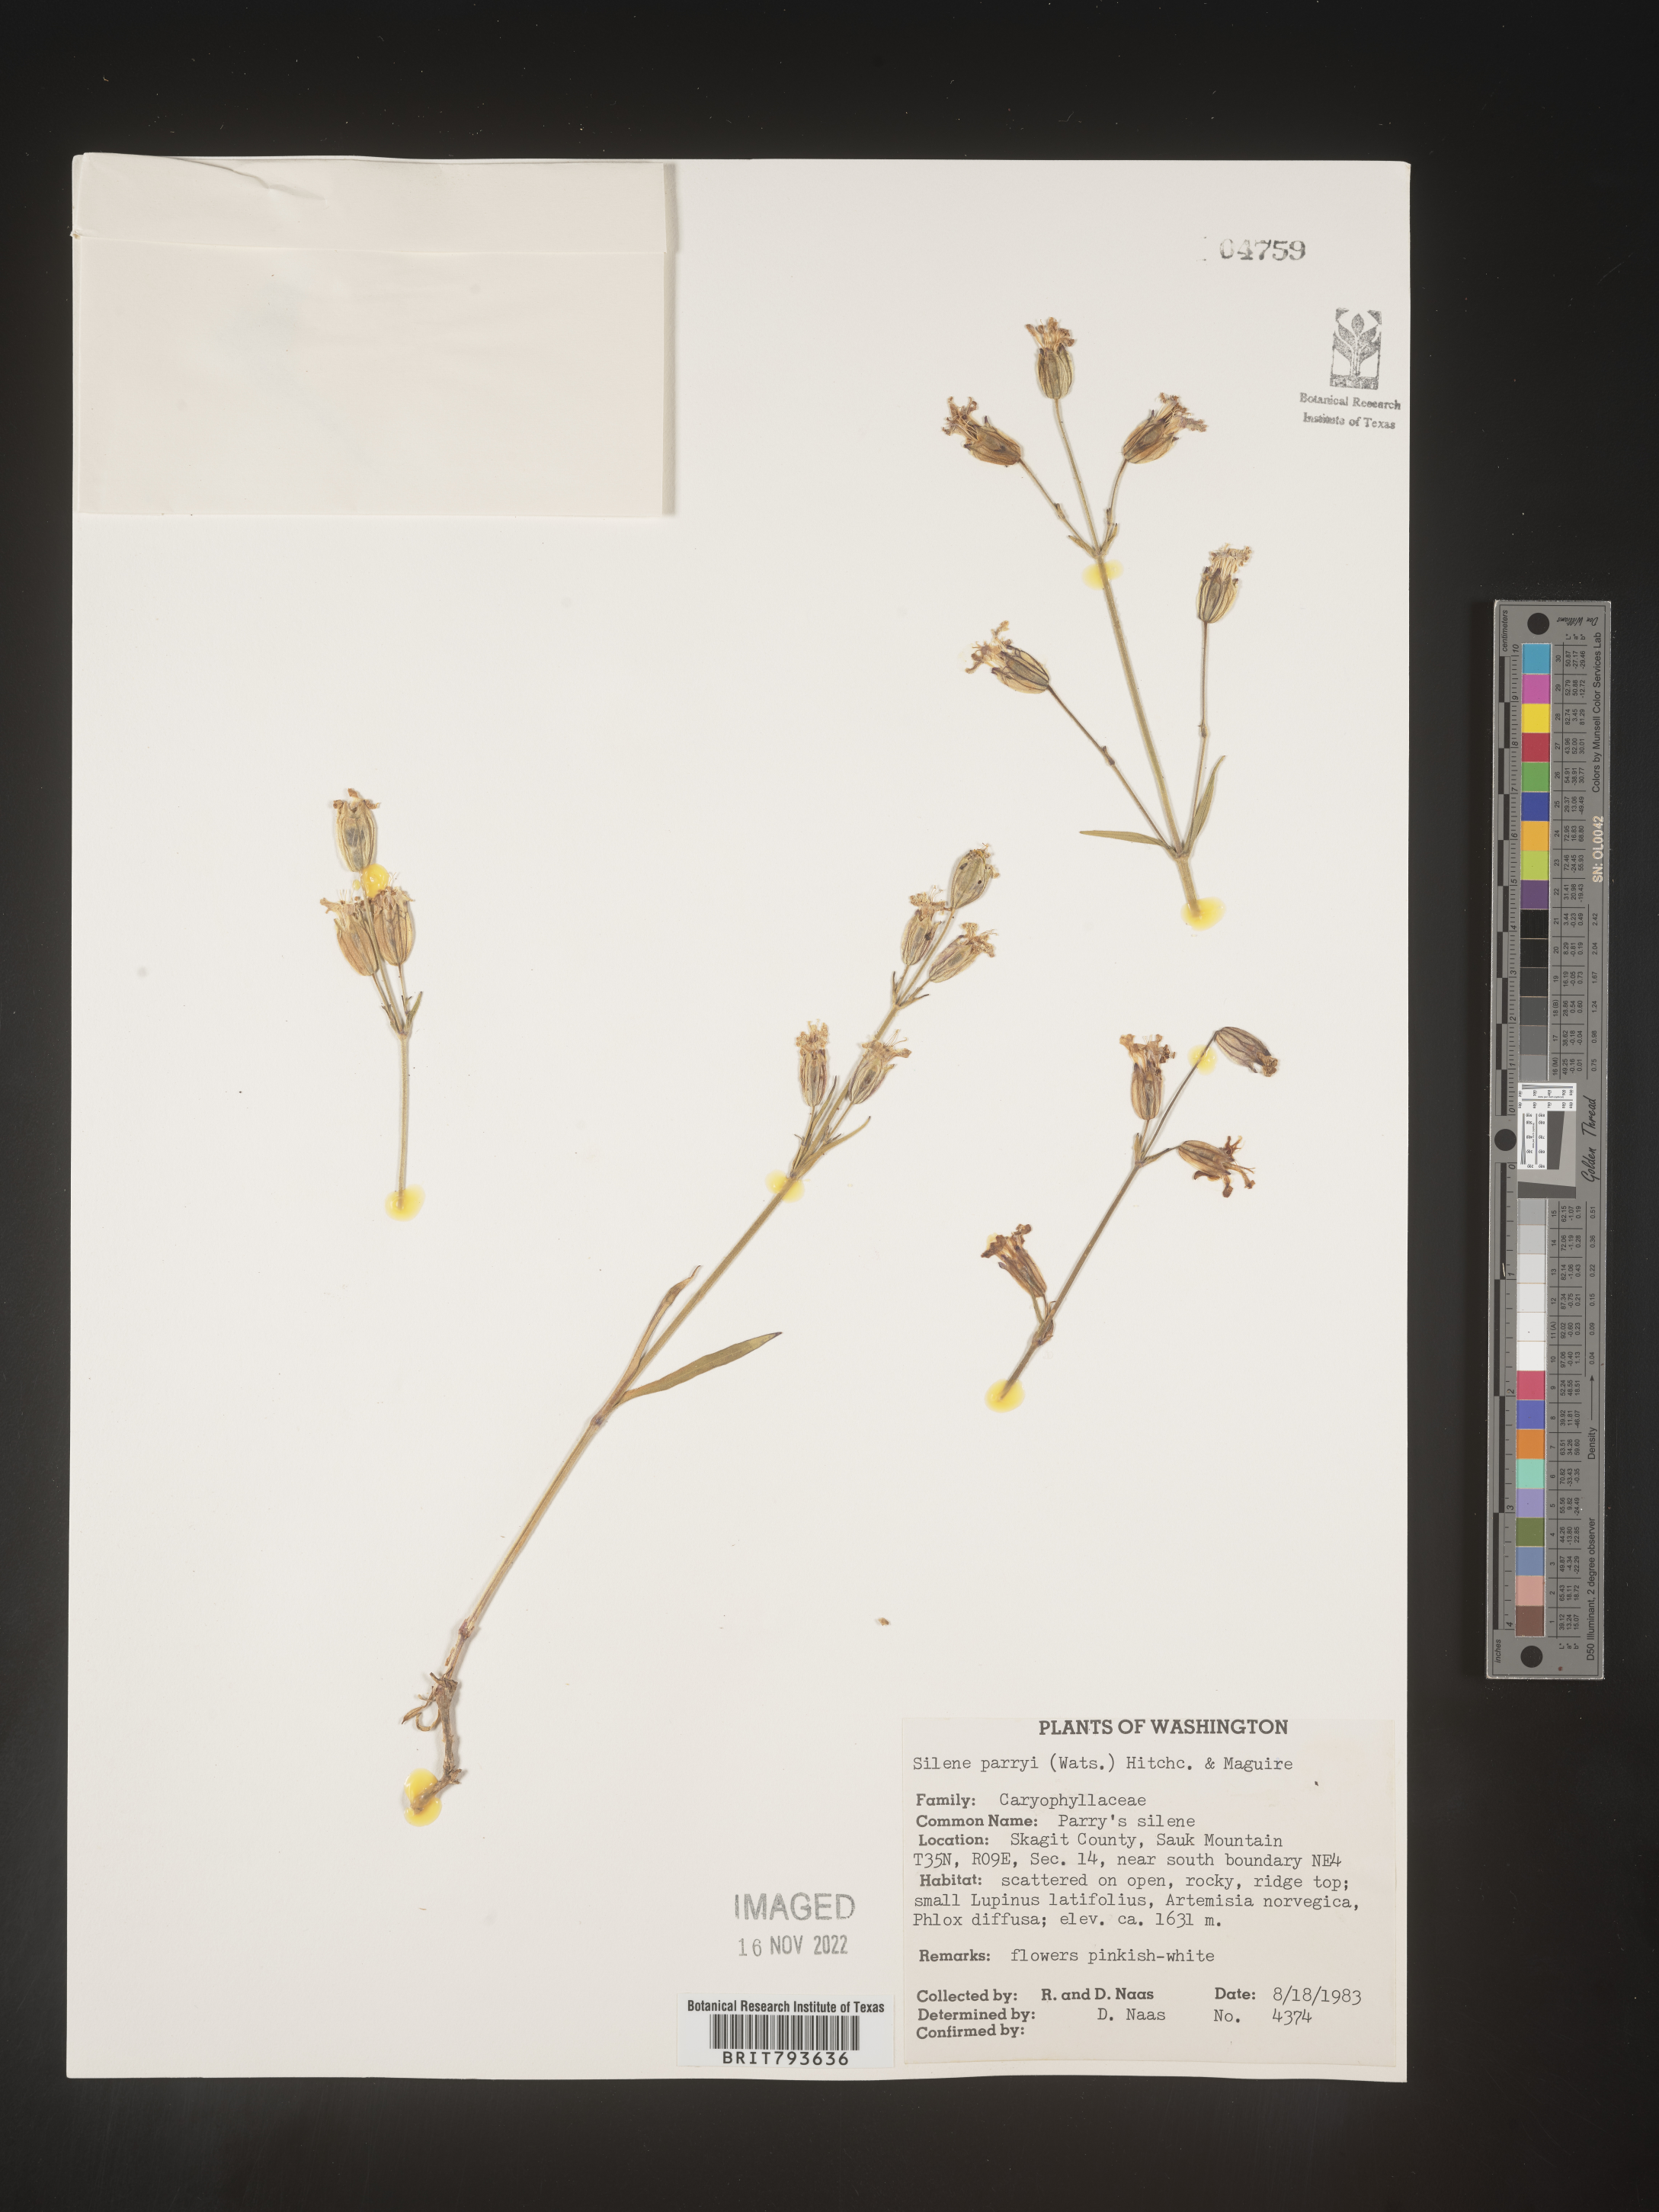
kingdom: Plantae
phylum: Tracheophyta
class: Magnoliopsida
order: Caryophyllales
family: Caryophyllaceae
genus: Silene
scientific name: Silene parryi
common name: Parry's campion
